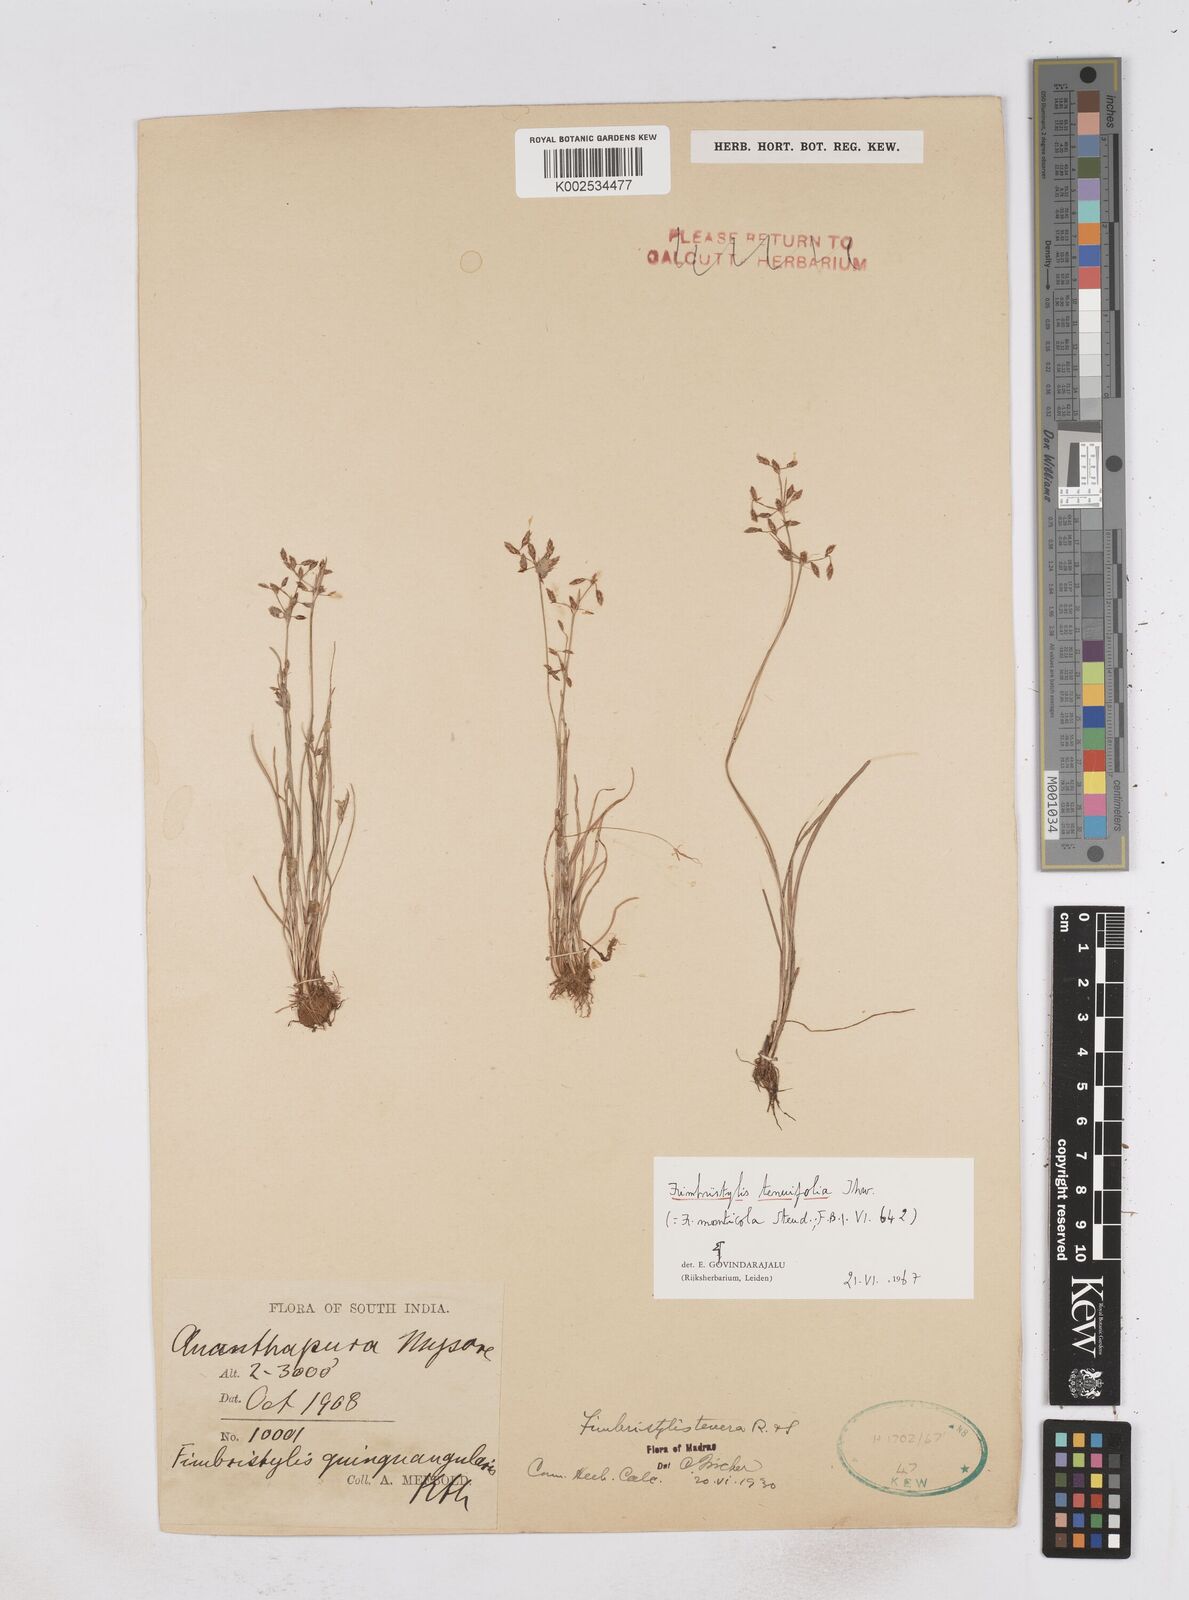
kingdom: Plantae
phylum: Tracheophyta
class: Liliopsida
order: Poales
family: Cyperaceae
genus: Fimbristylis
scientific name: Fimbristylis monticola
